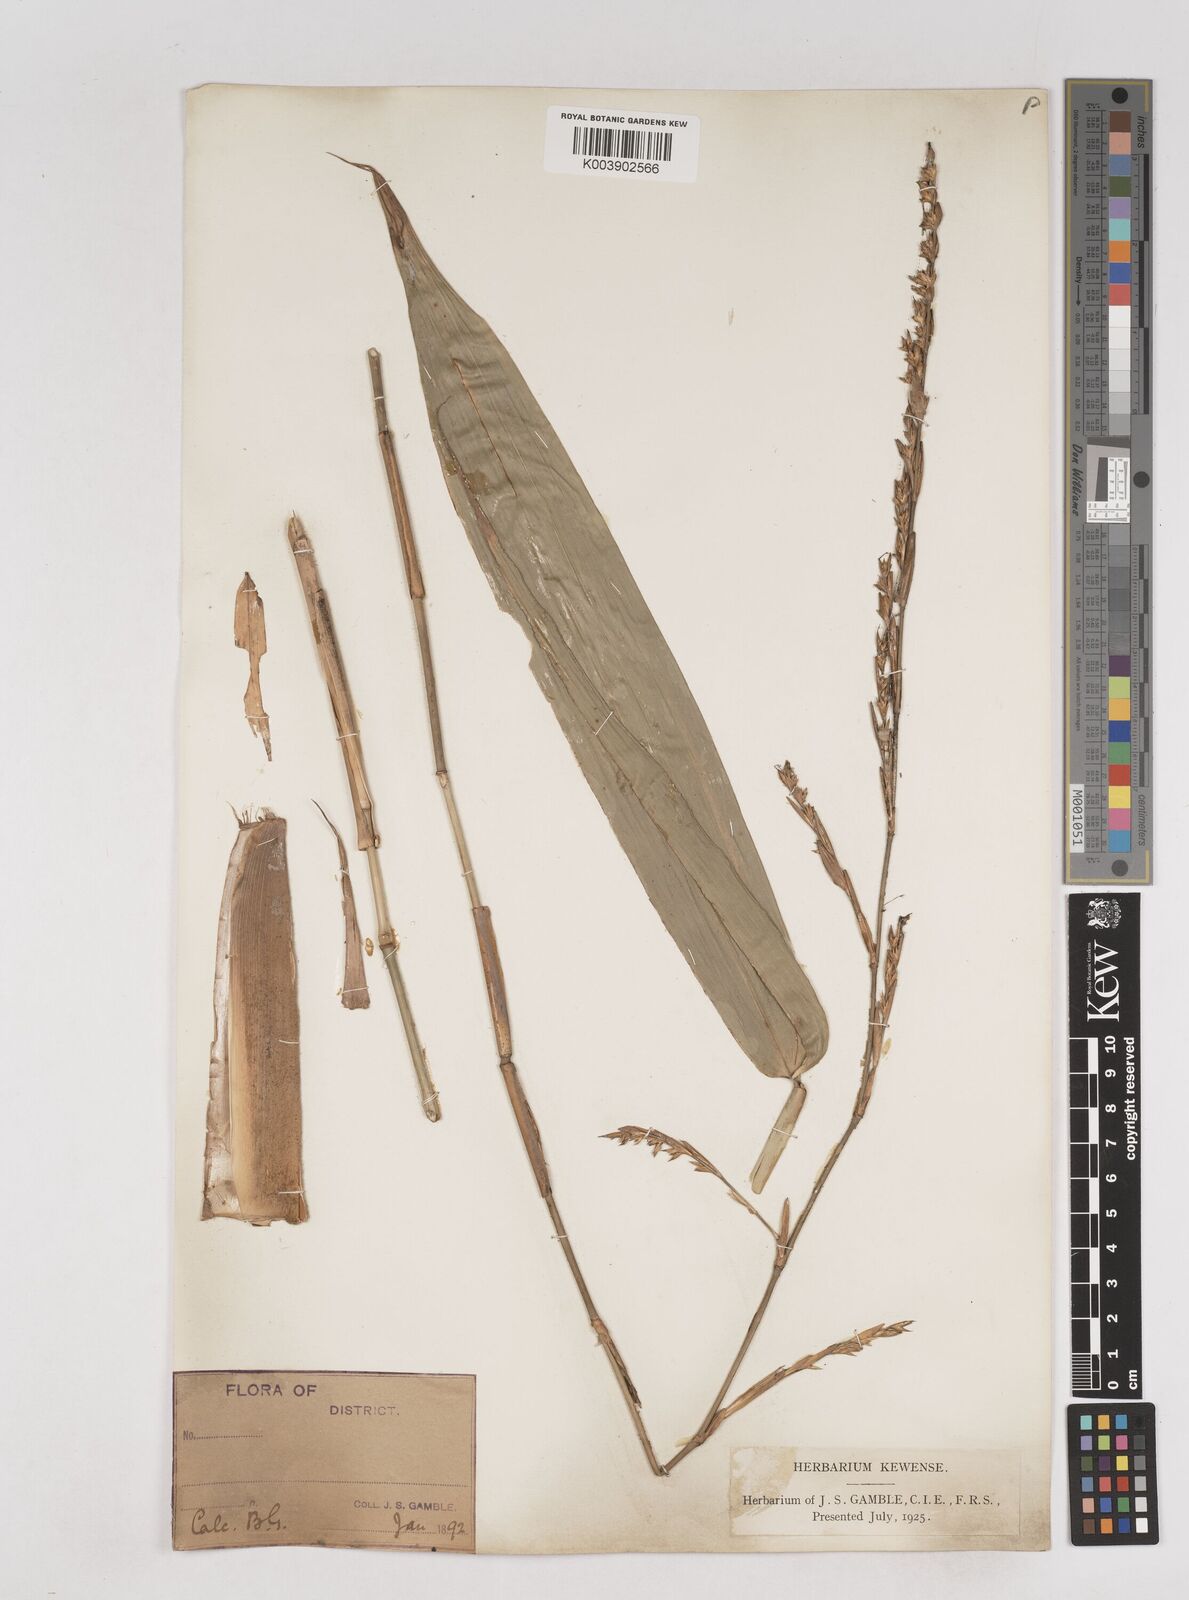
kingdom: Plantae
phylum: Tracheophyta
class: Liliopsida
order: Poales
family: Poaceae
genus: Schizostachyum
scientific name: Schizostachyum
